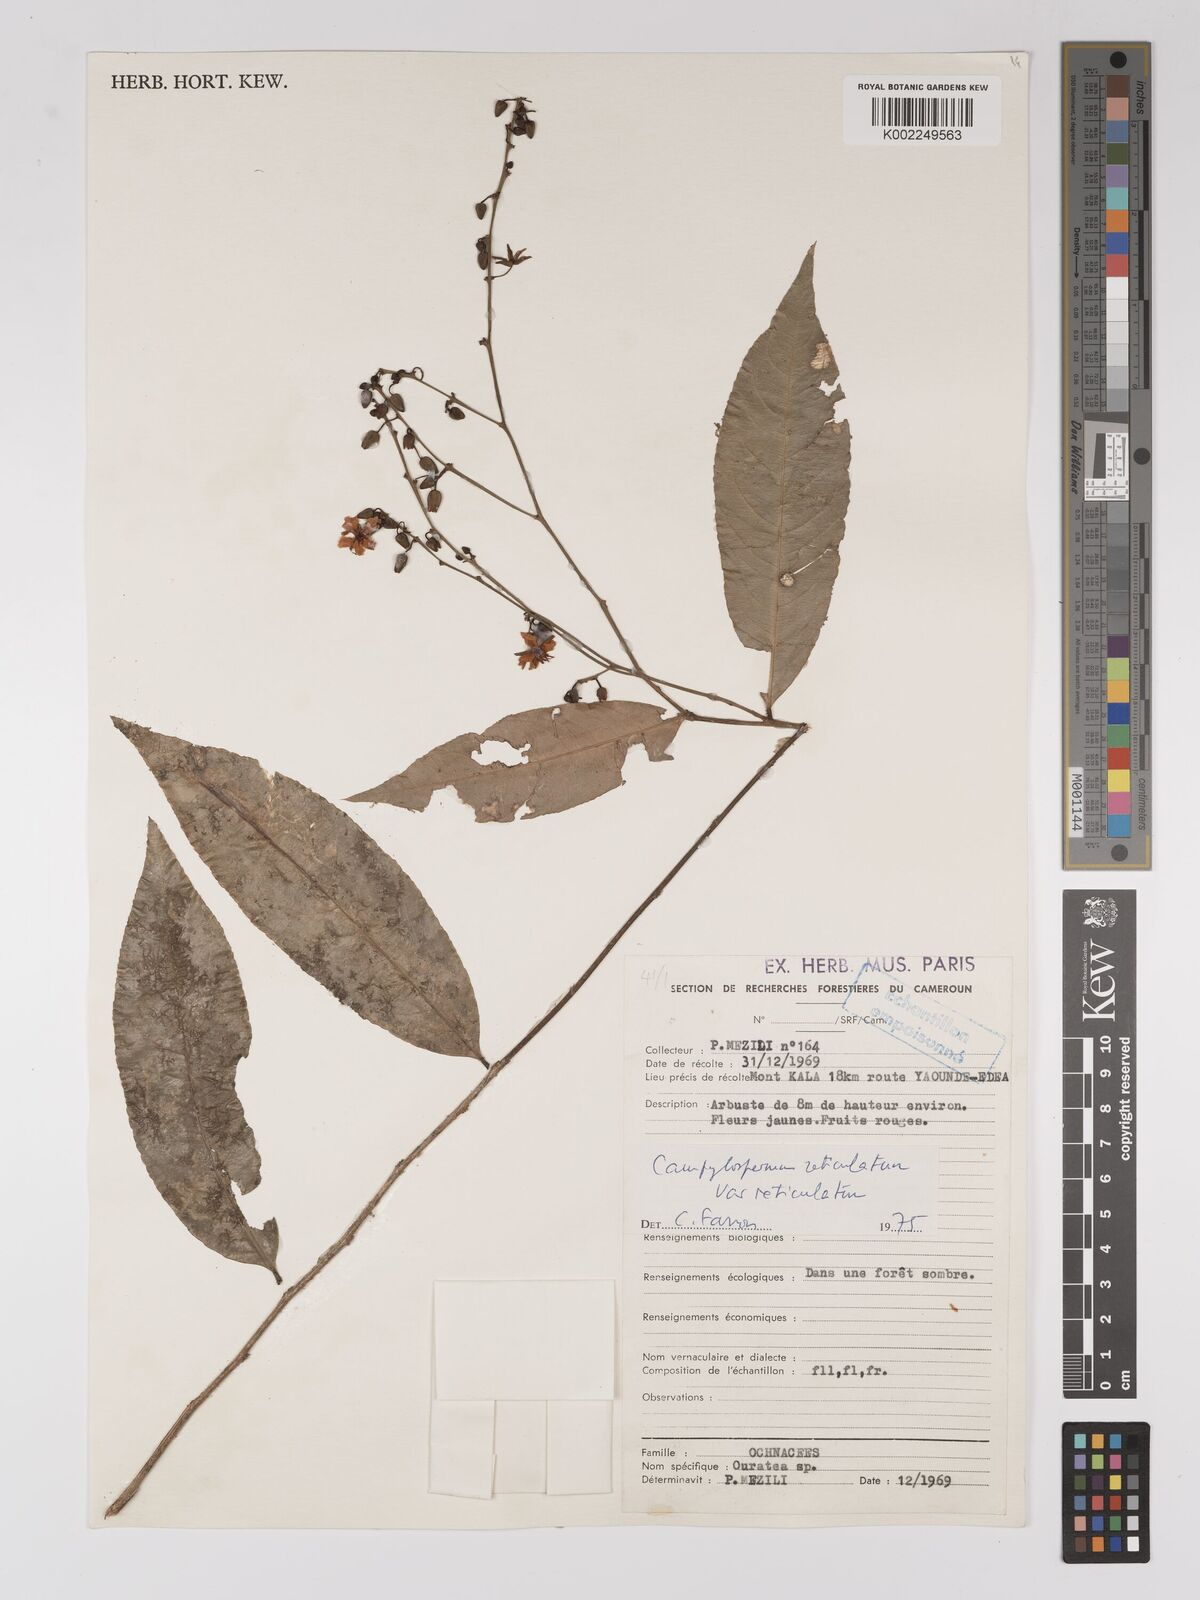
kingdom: Plantae
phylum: Tracheophyta
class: Magnoliopsida
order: Malpighiales
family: Ochnaceae
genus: Campylospermum
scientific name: Campylospermum reticulatum
